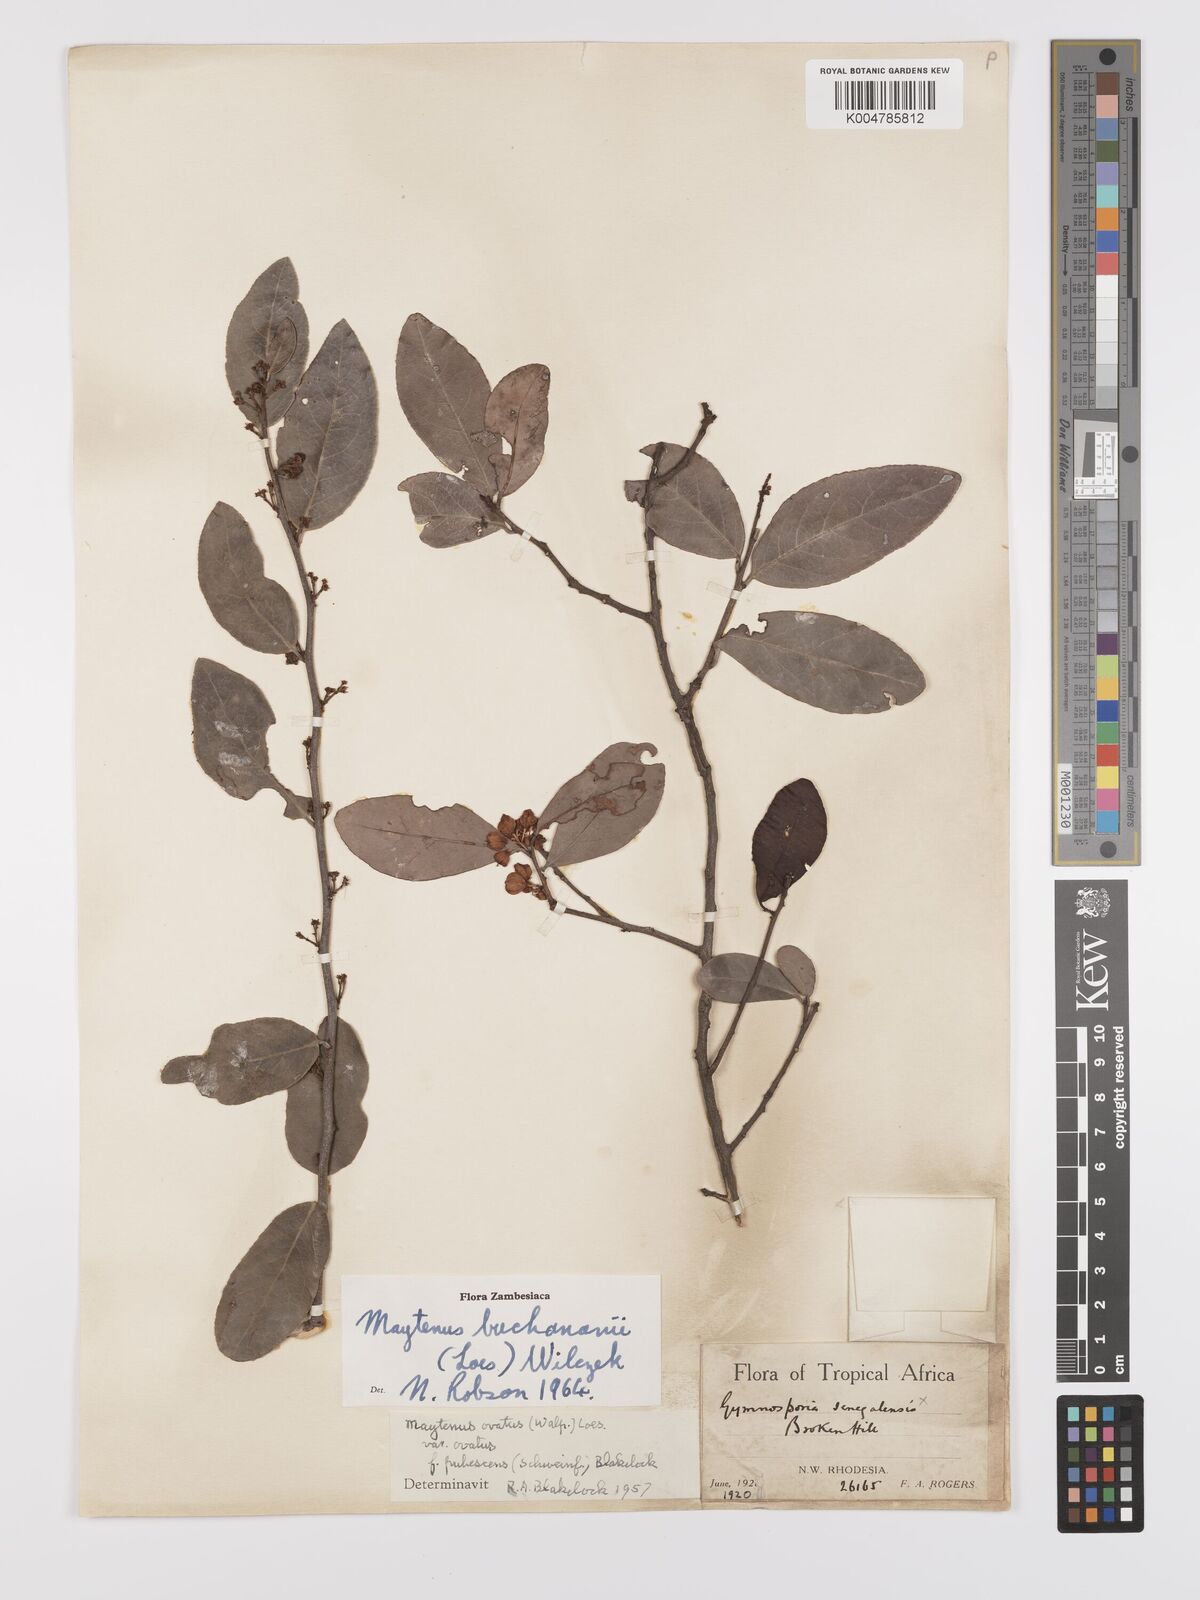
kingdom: Plantae
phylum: Tracheophyta
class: Magnoliopsida
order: Celastrales
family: Celastraceae
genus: Gymnosporia
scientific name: Gymnosporia buchananii
